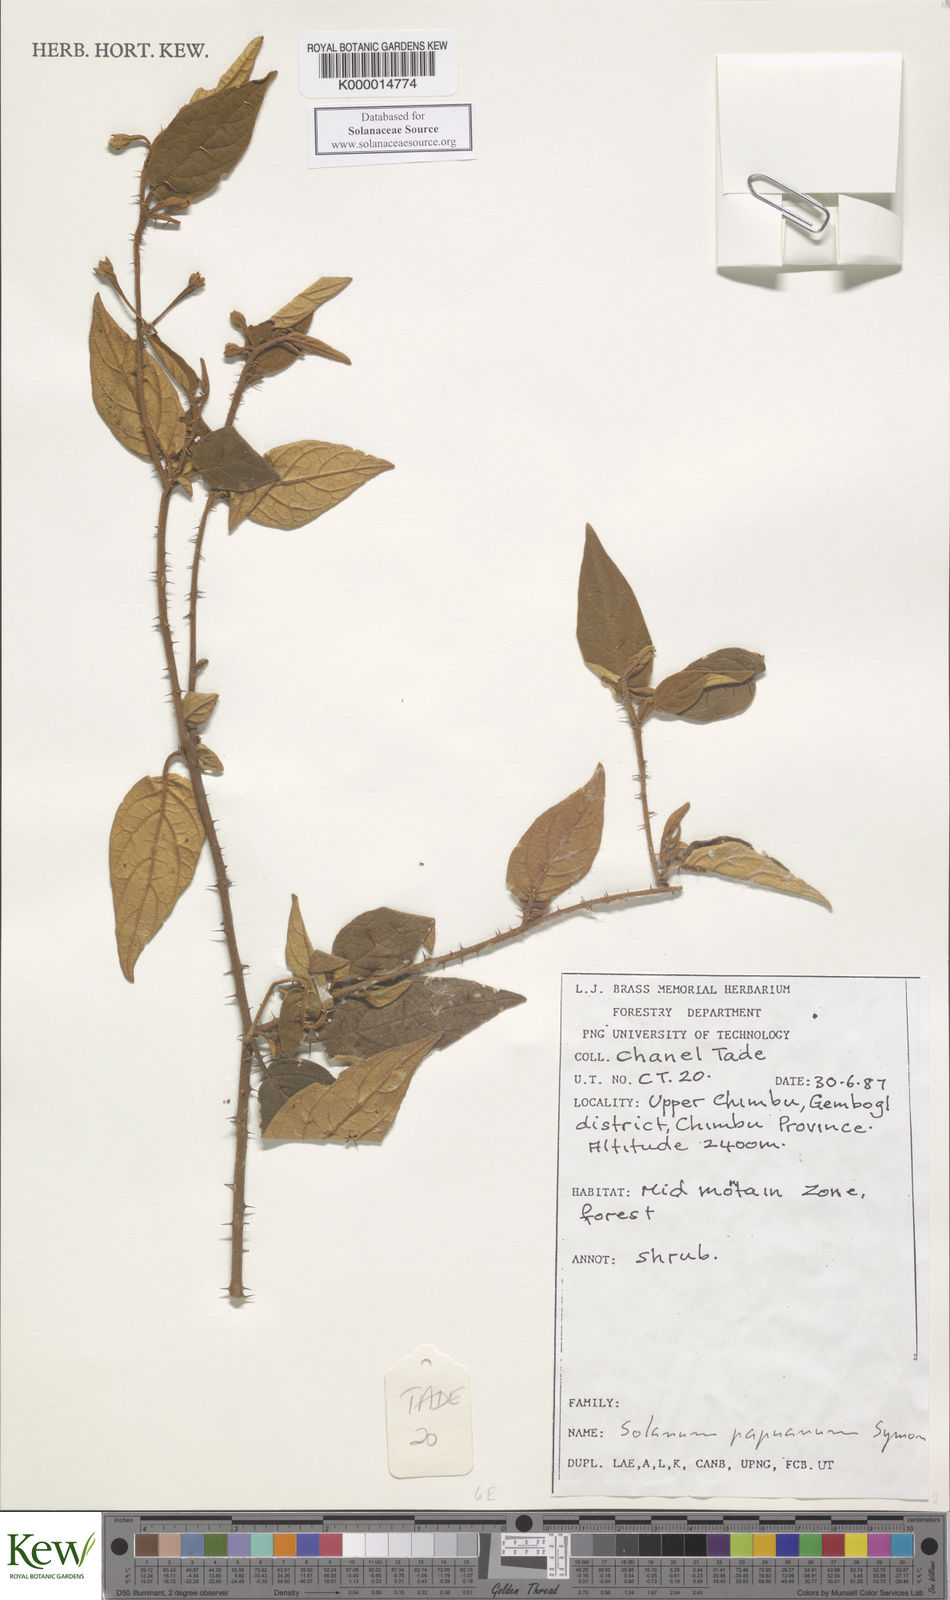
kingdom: Plantae
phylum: Tracheophyta
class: Magnoliopsida
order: Solanales
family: Solanaceae
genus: Solanum
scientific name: Solanum papuanum
